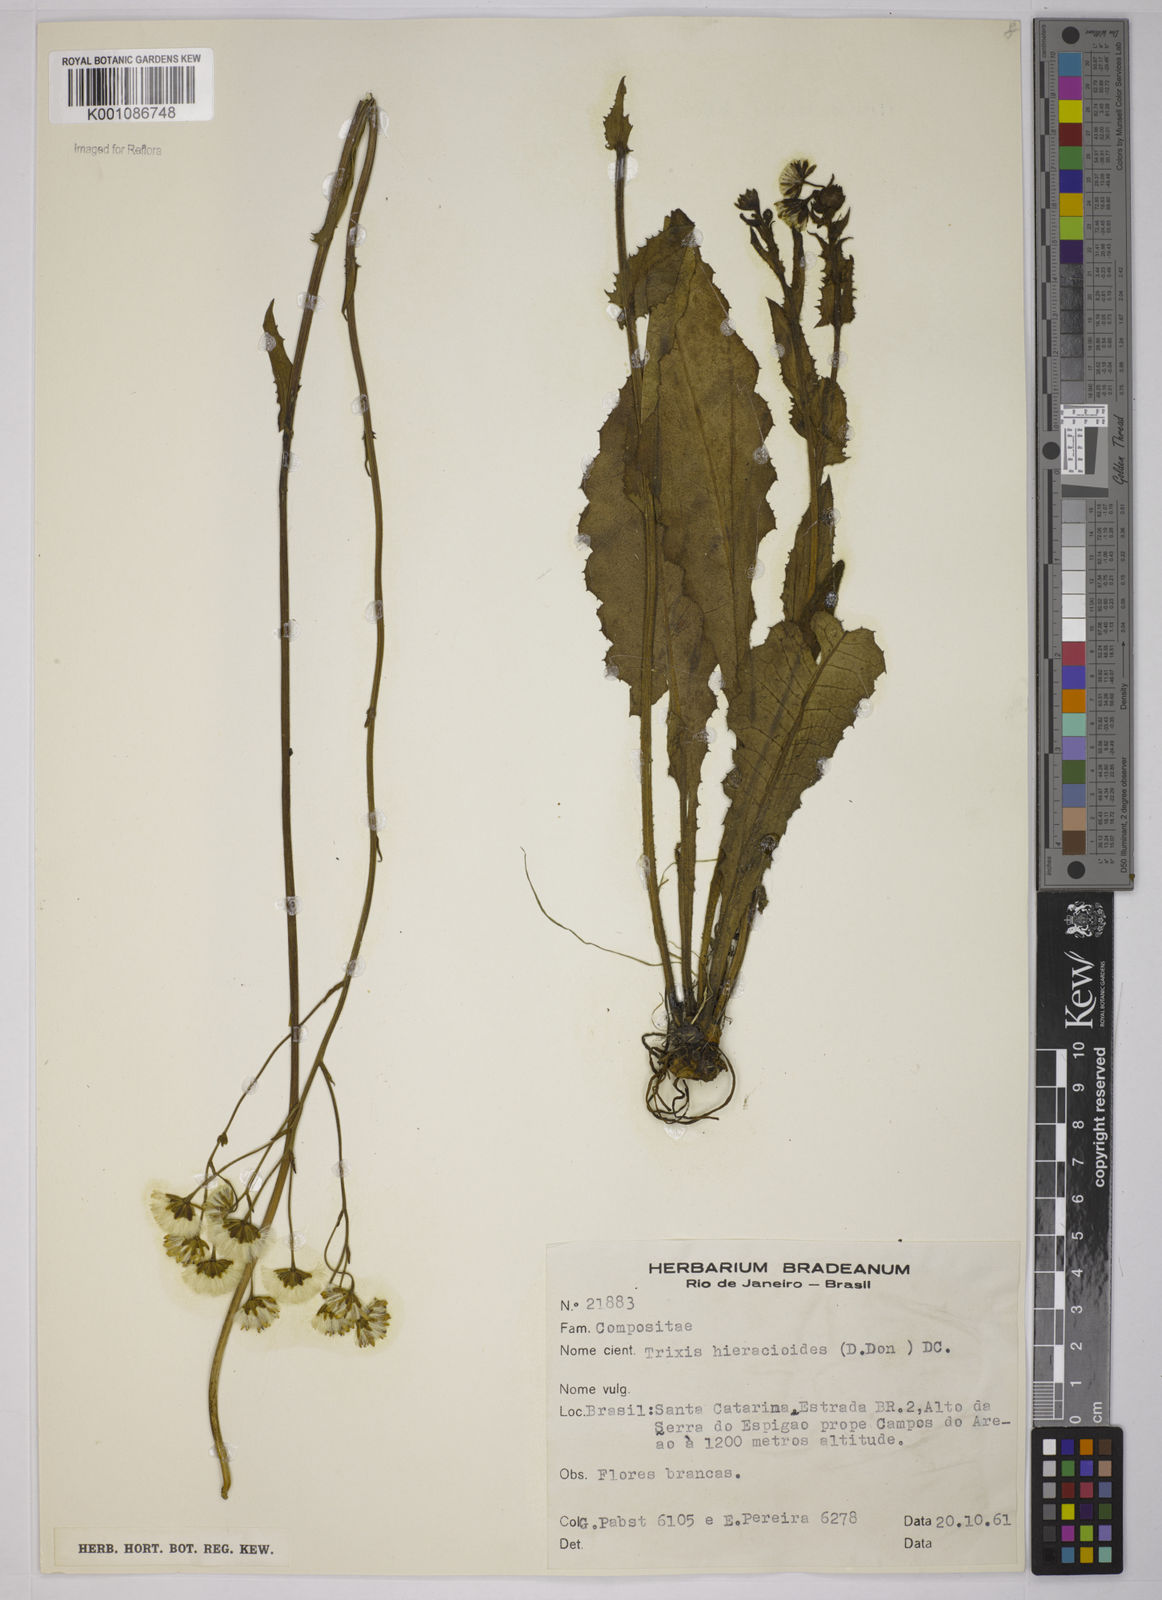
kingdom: Plantae
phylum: Tracheophyta
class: Magnoliopsida
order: Asterales
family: Asteraceae
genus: Holocheilus
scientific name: Holocheilus illustris
